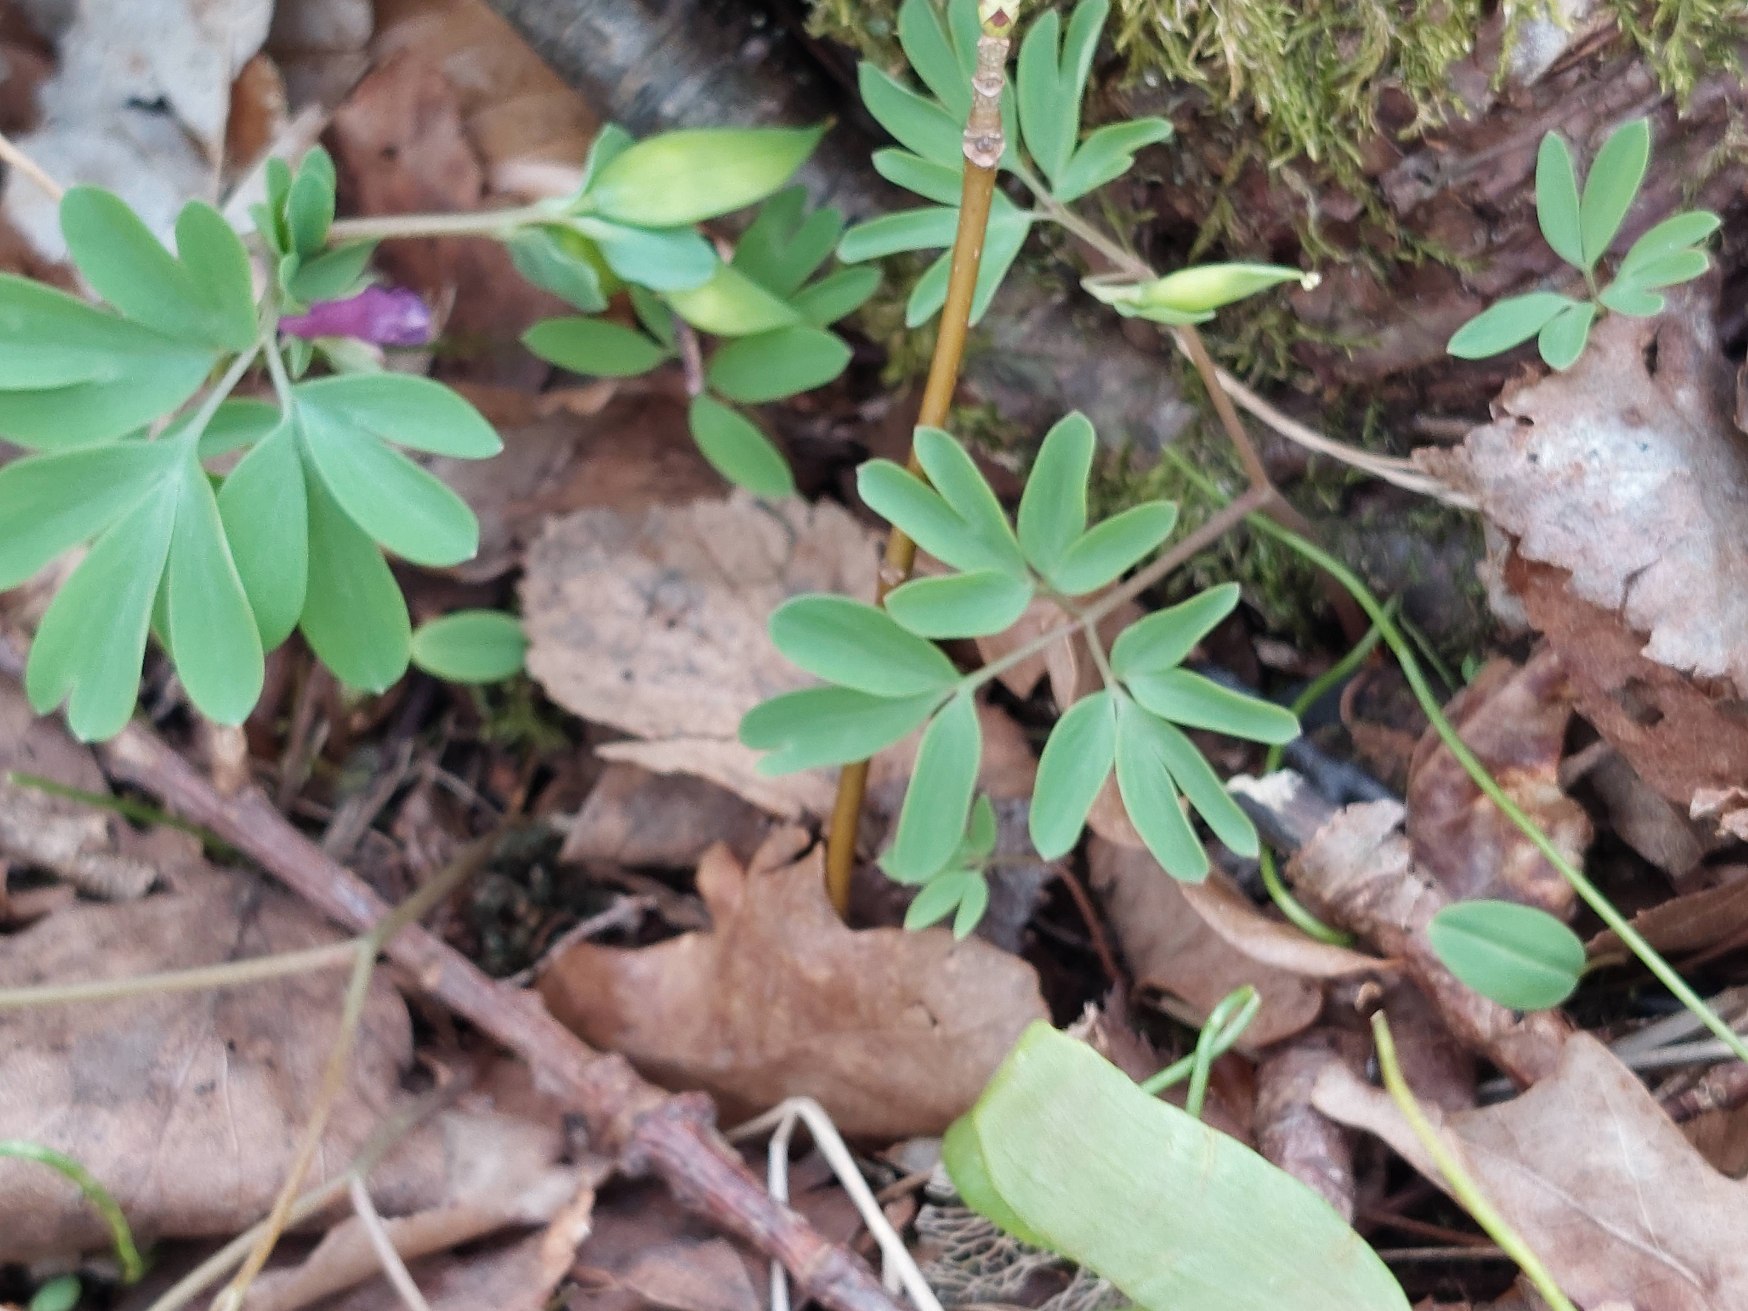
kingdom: Plantae
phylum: Tracheophyta
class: Magnoliopsida
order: Ranunculales
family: Papaveraceae
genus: Corydalis
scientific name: Corydalis intermedia
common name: Liden lærkespore
